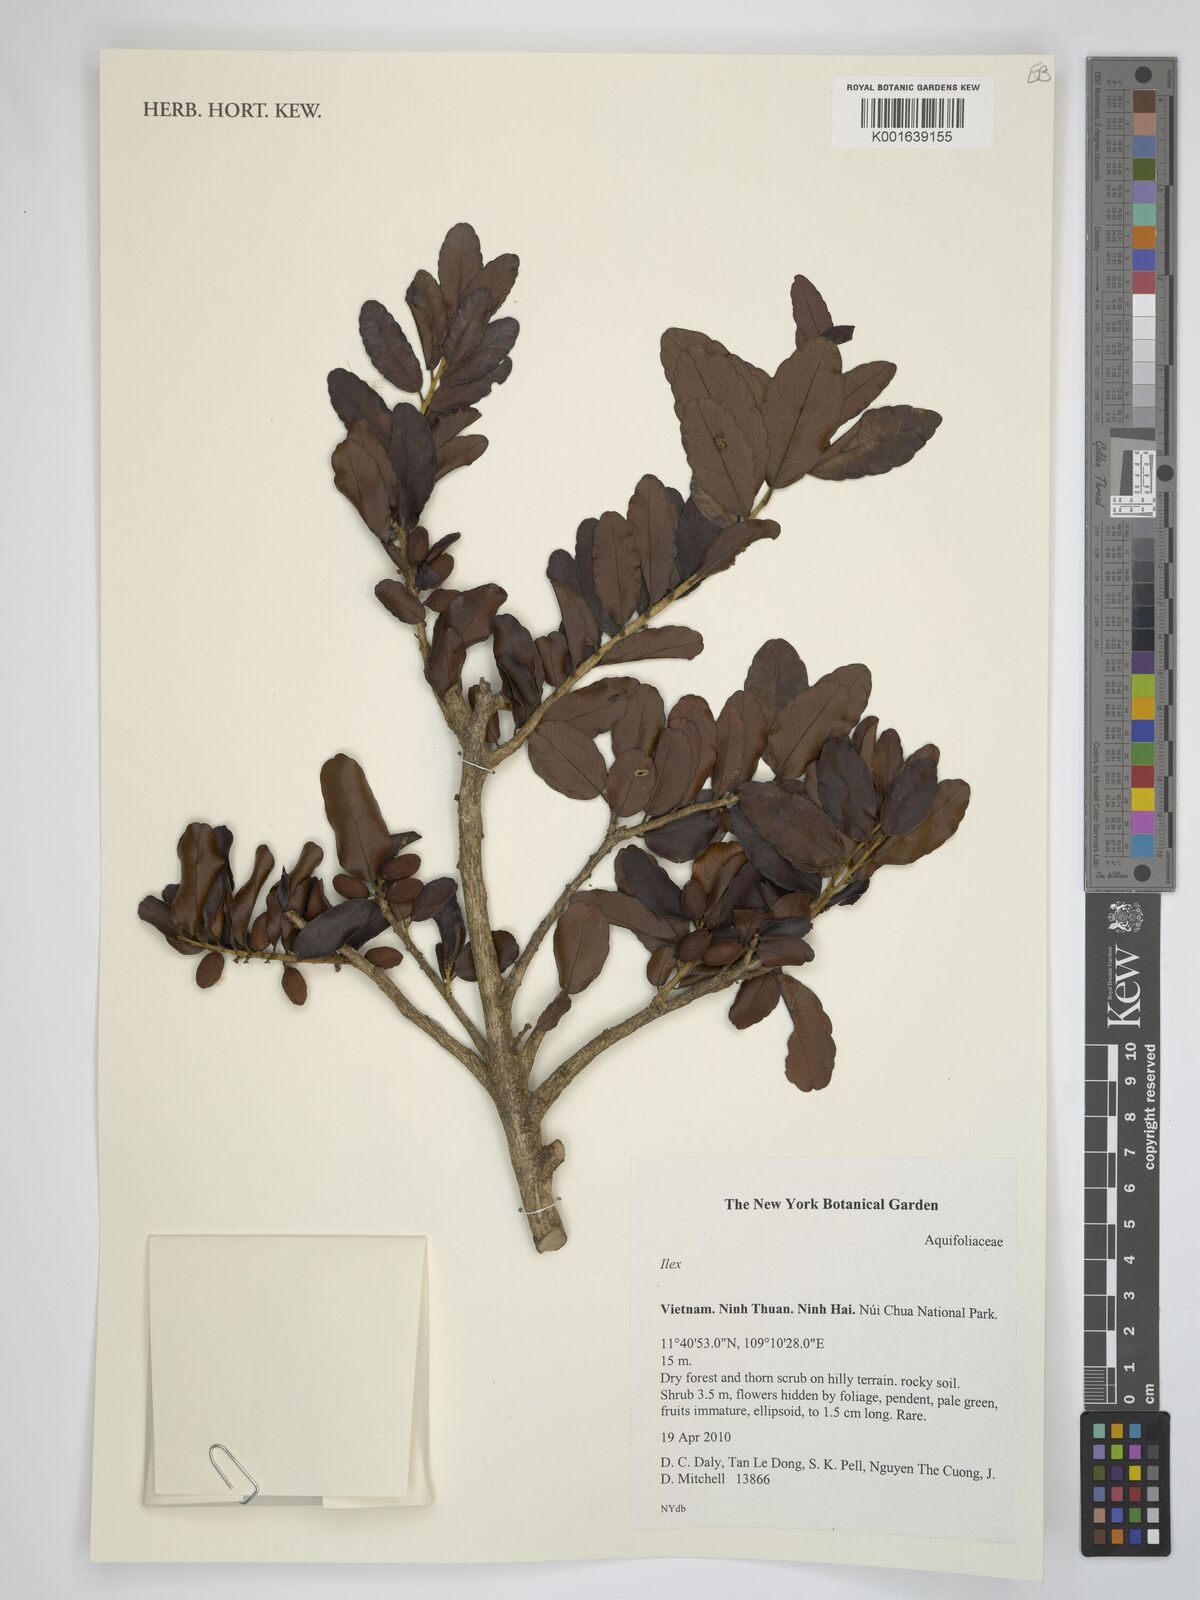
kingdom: Plantae
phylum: Tracheophyta
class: Magnoliopsida
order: Aquifoliales
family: Aquifoliaceae
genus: Ilex
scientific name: Ilex
